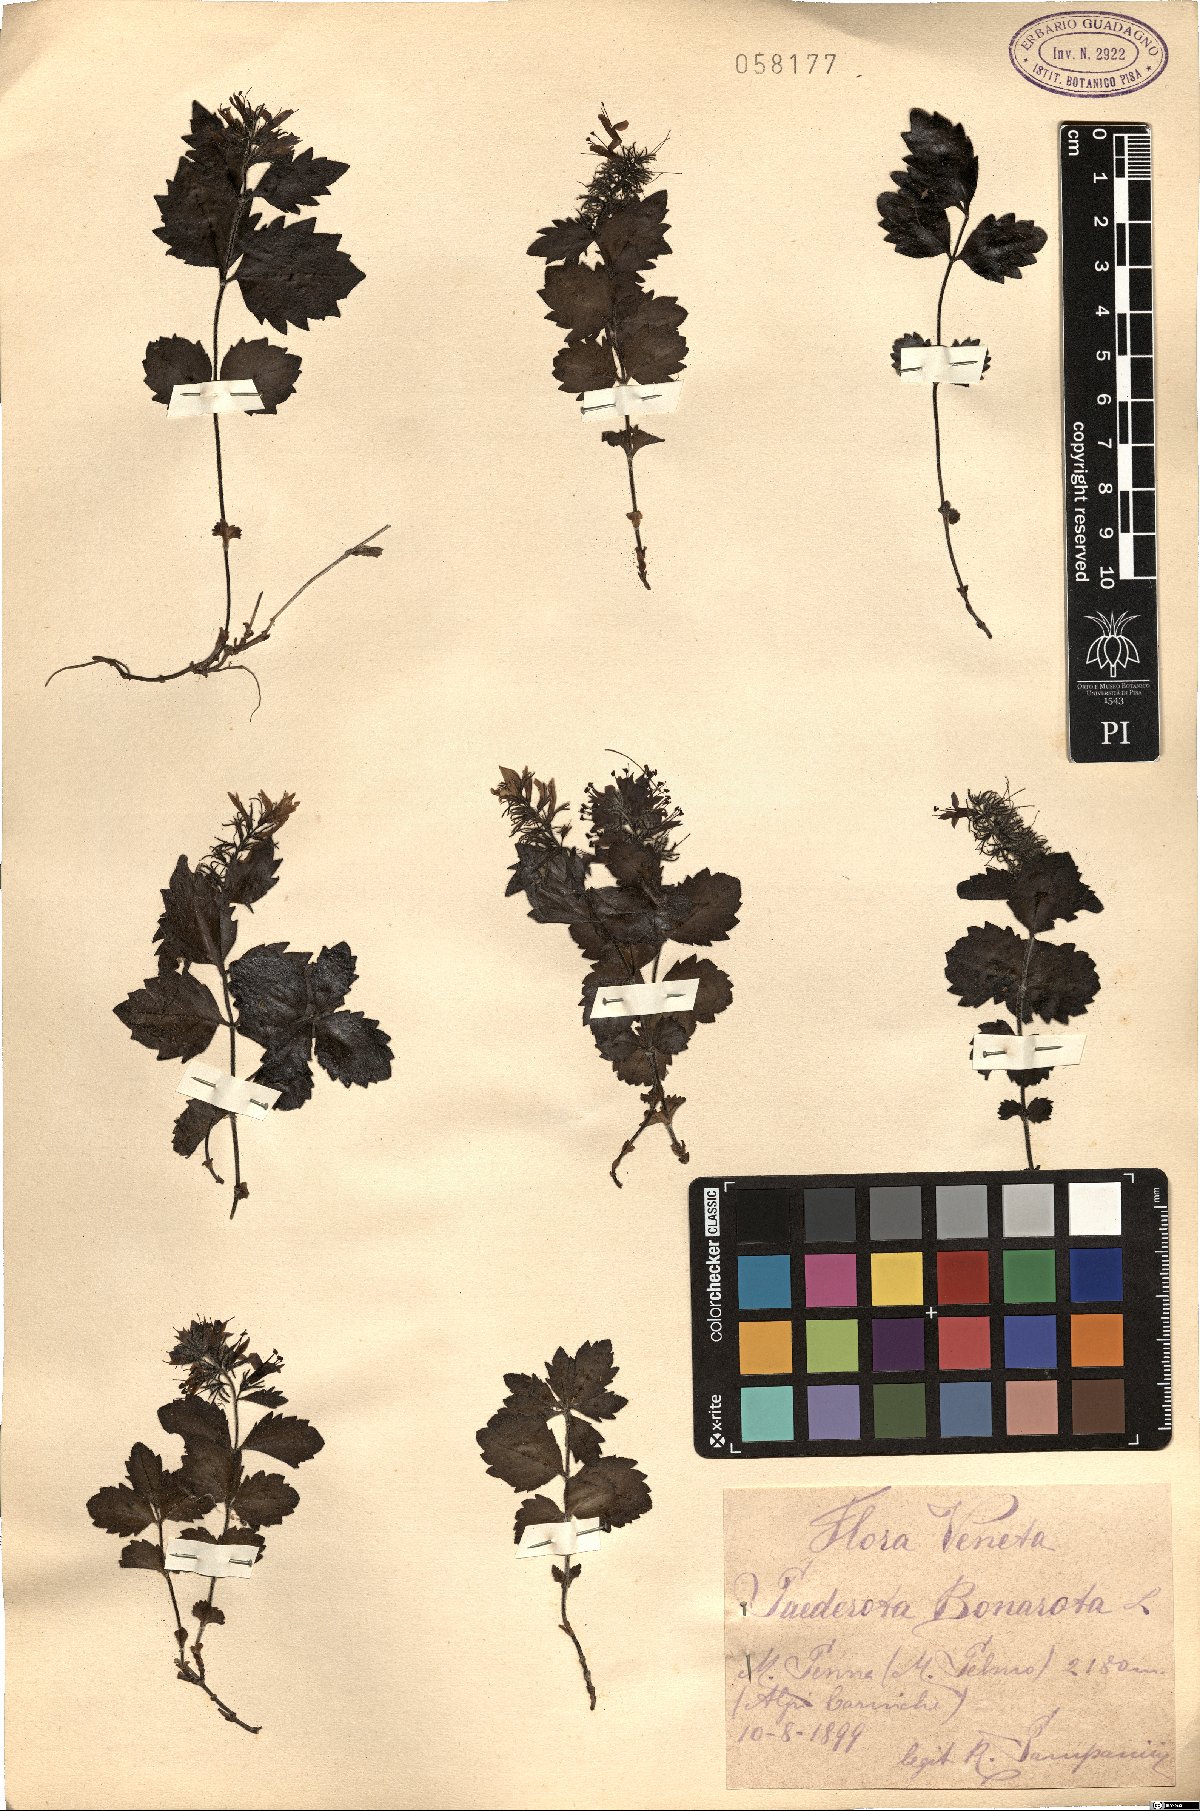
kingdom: Plantae
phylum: Tracheophyta
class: Magnoliopsida
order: Lamiales
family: Plantaginaceae
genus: Paederota
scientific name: Paederota bonarota
